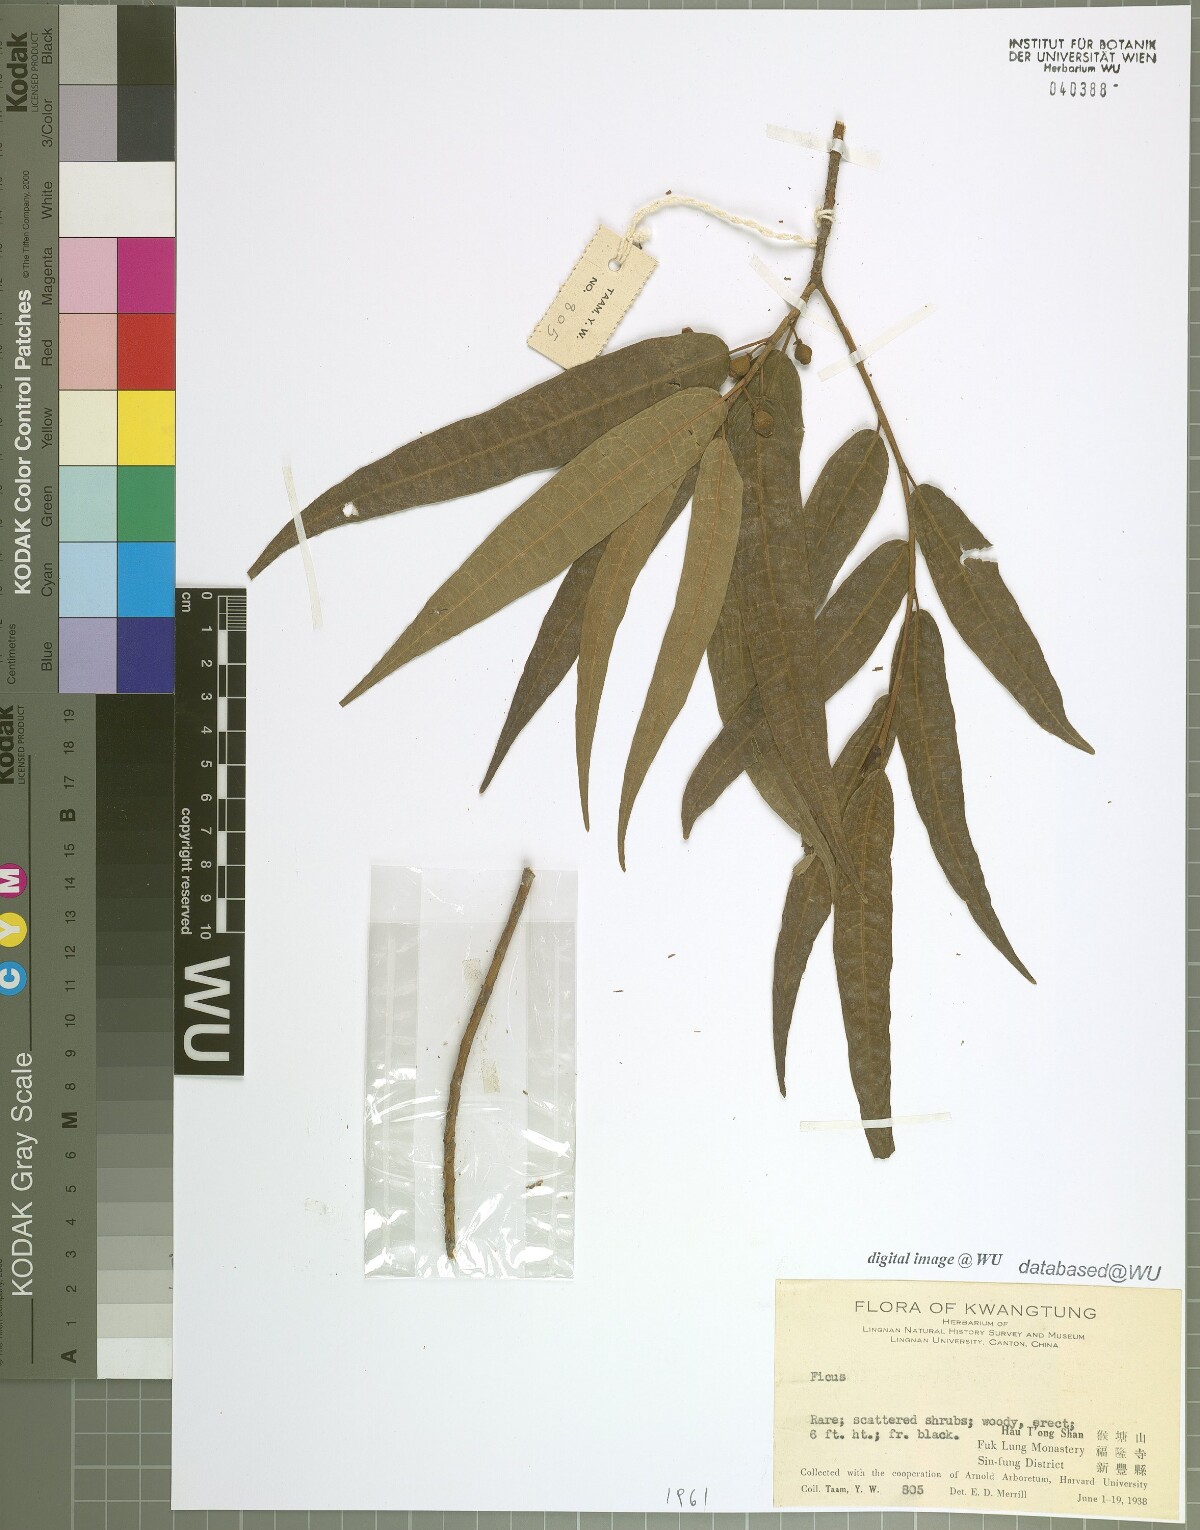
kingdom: Plantae
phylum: Tracheophyta
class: Magnoliopsida
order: Rosales
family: Moraceae
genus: Ficus
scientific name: Ficus
